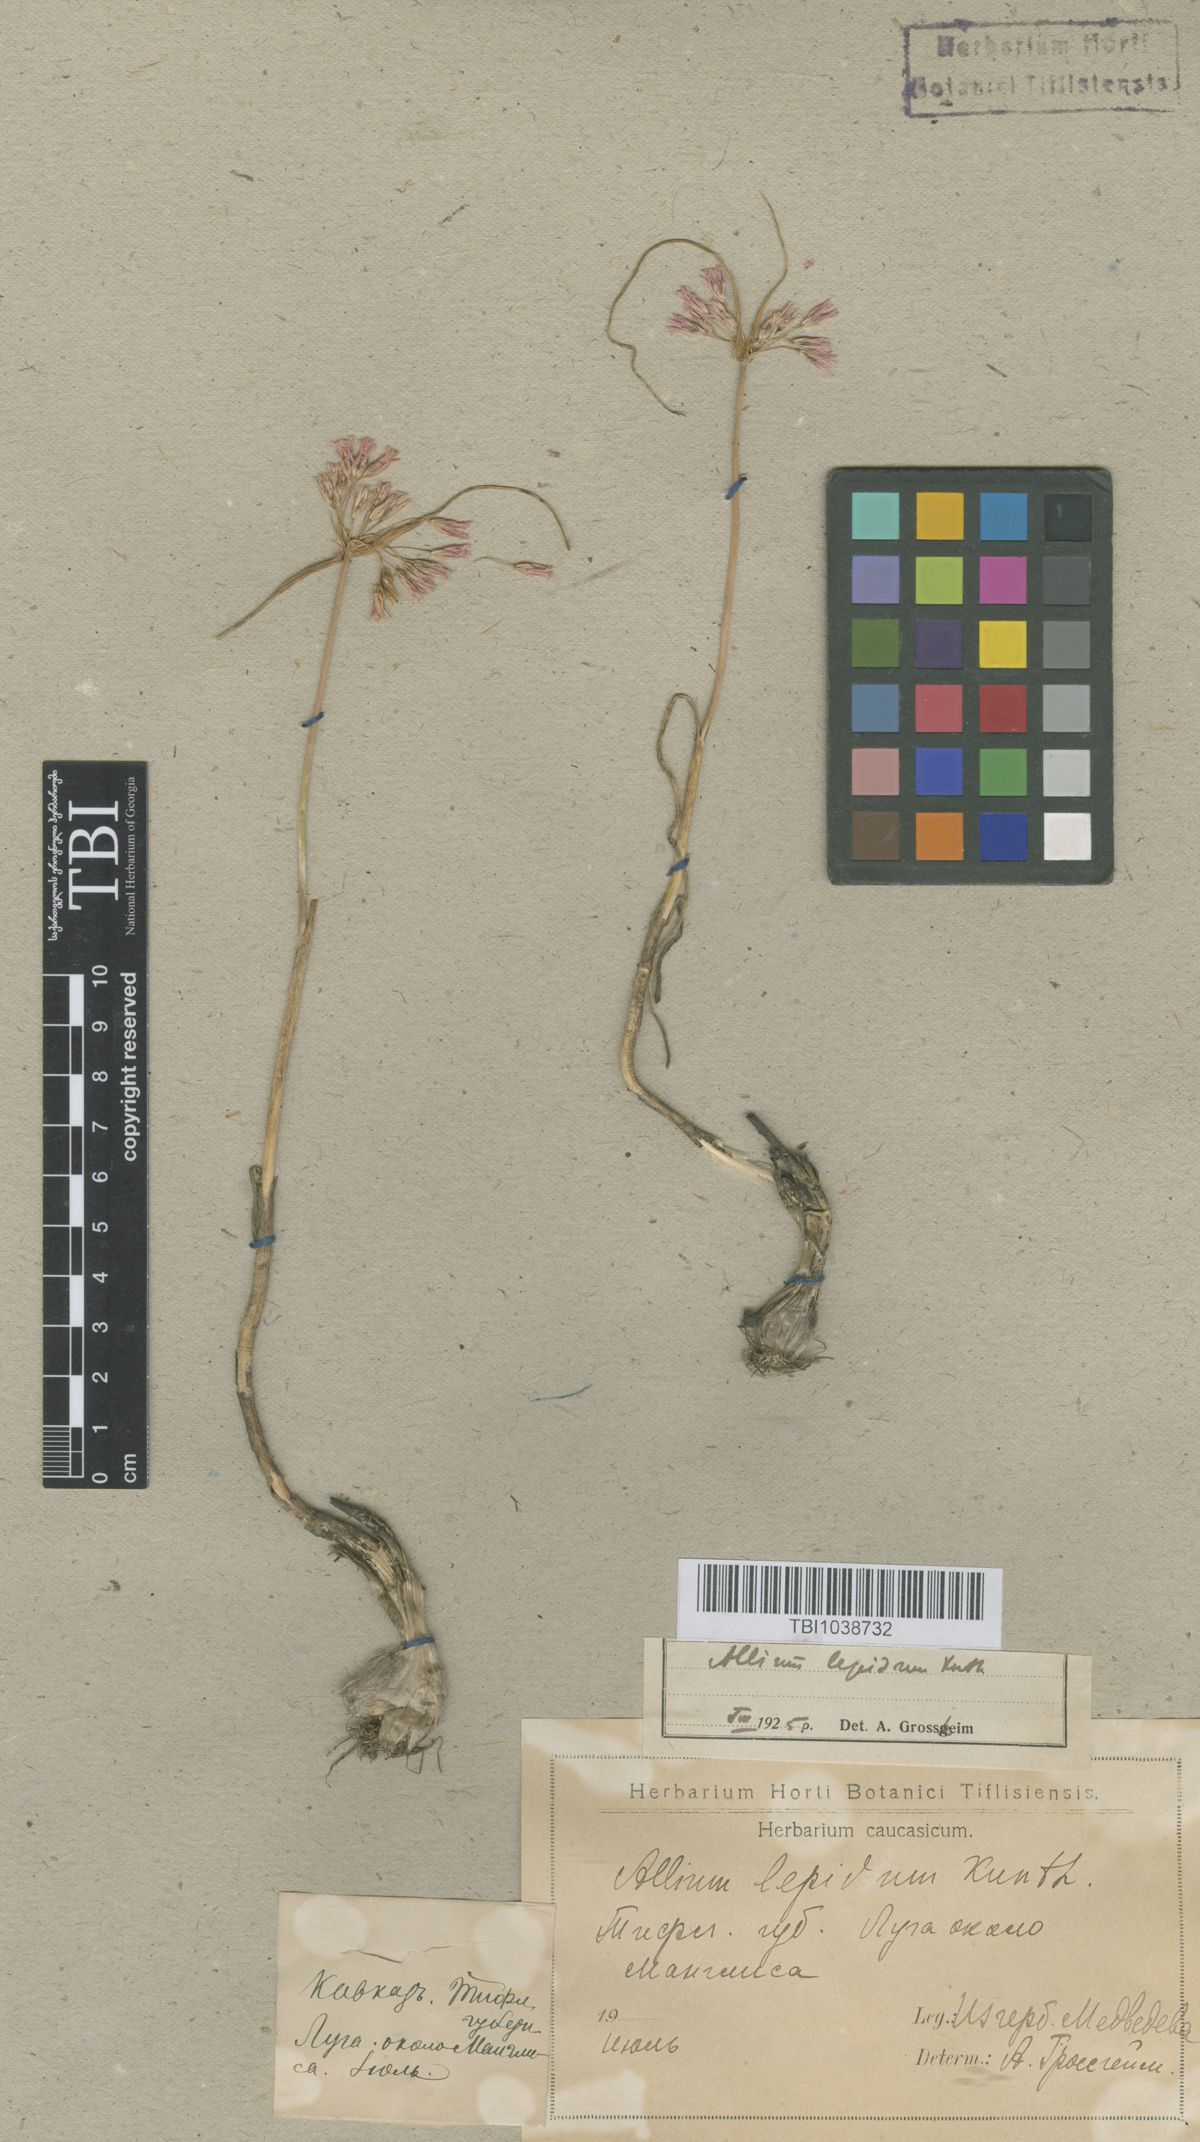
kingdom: Plantae
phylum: Tracheophyta
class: Liliopsida
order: Asparagales
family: Amaryllidaceae
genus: Allium
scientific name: Allium kunthianum
